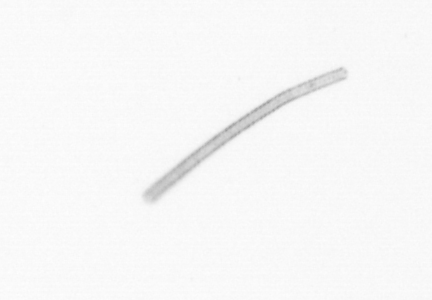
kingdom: Chromista
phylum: Ochrophyta
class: Bacillariophyceae
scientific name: Bacillariophyceae
